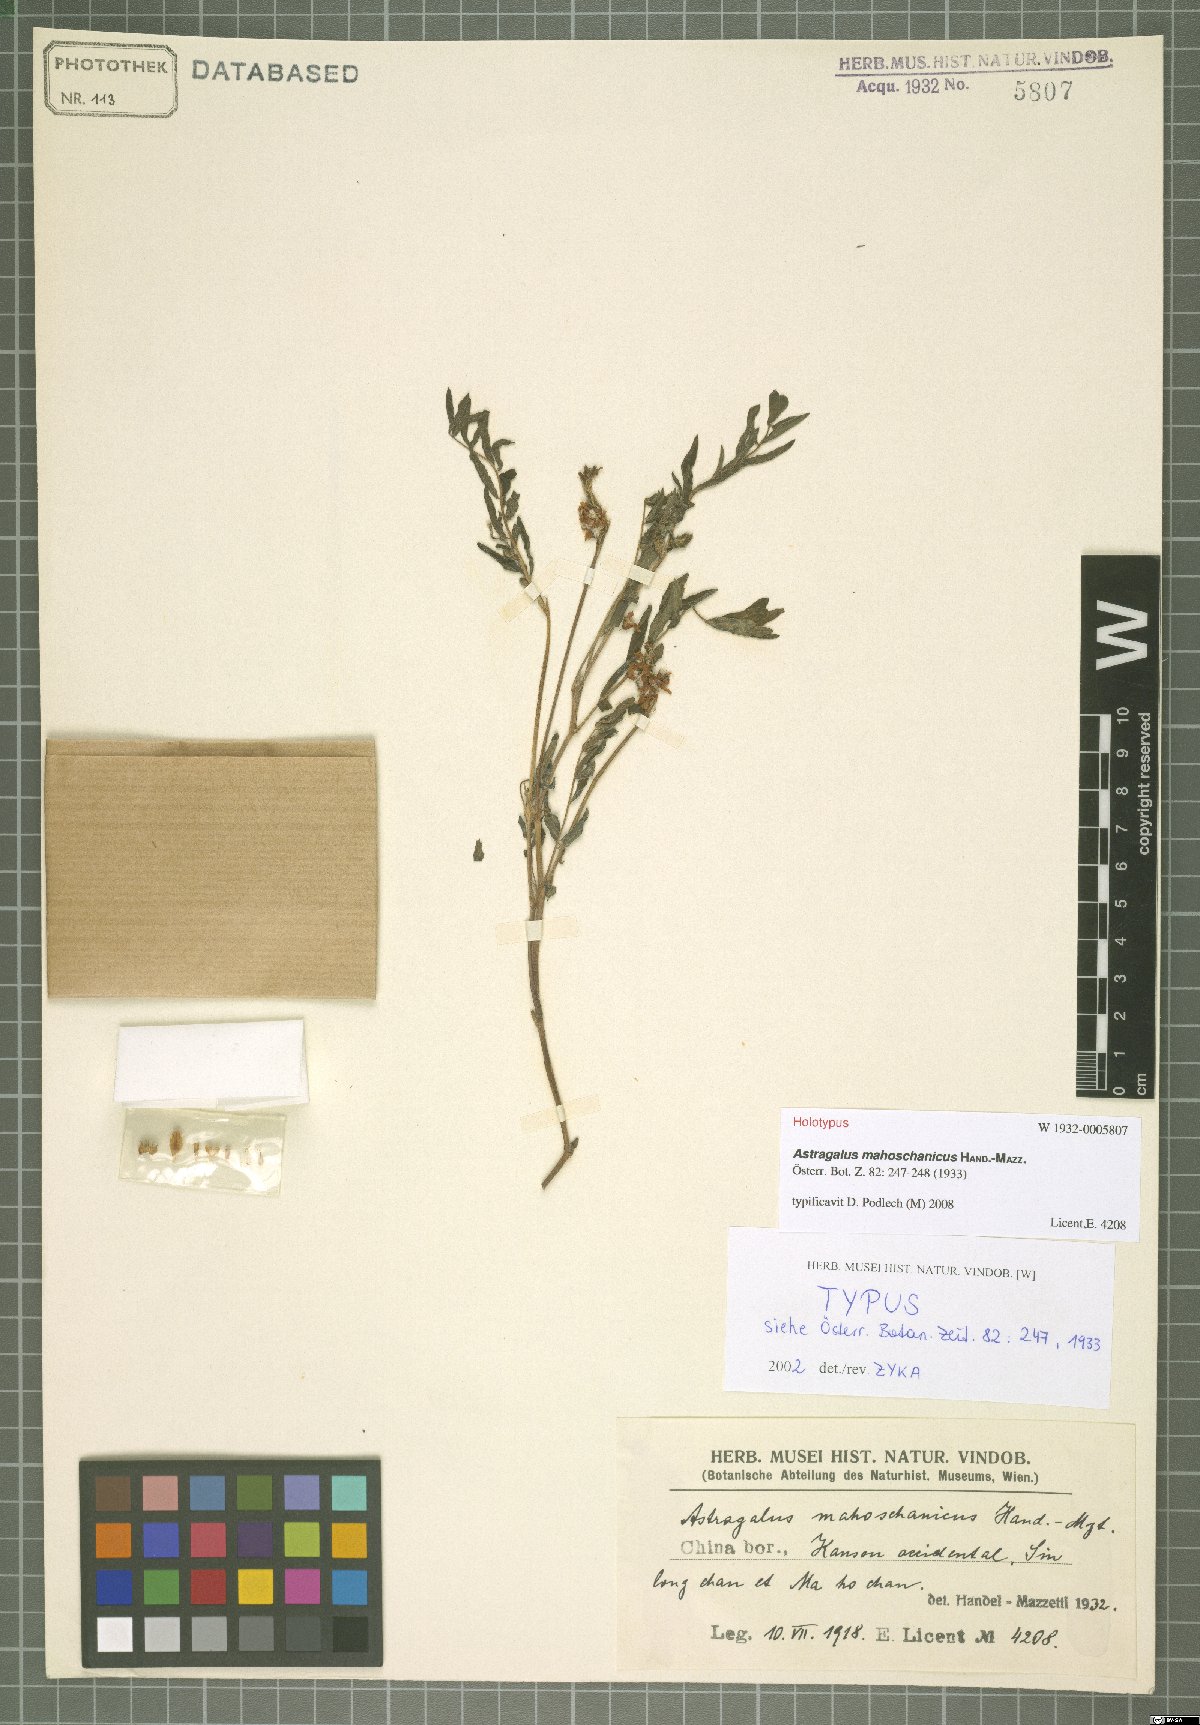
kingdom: Plantae
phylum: Tracheophyta
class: Magnoliopsida
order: Fabales
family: Fabaceae
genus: Astragalus
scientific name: Astragalus mahoschanicus
